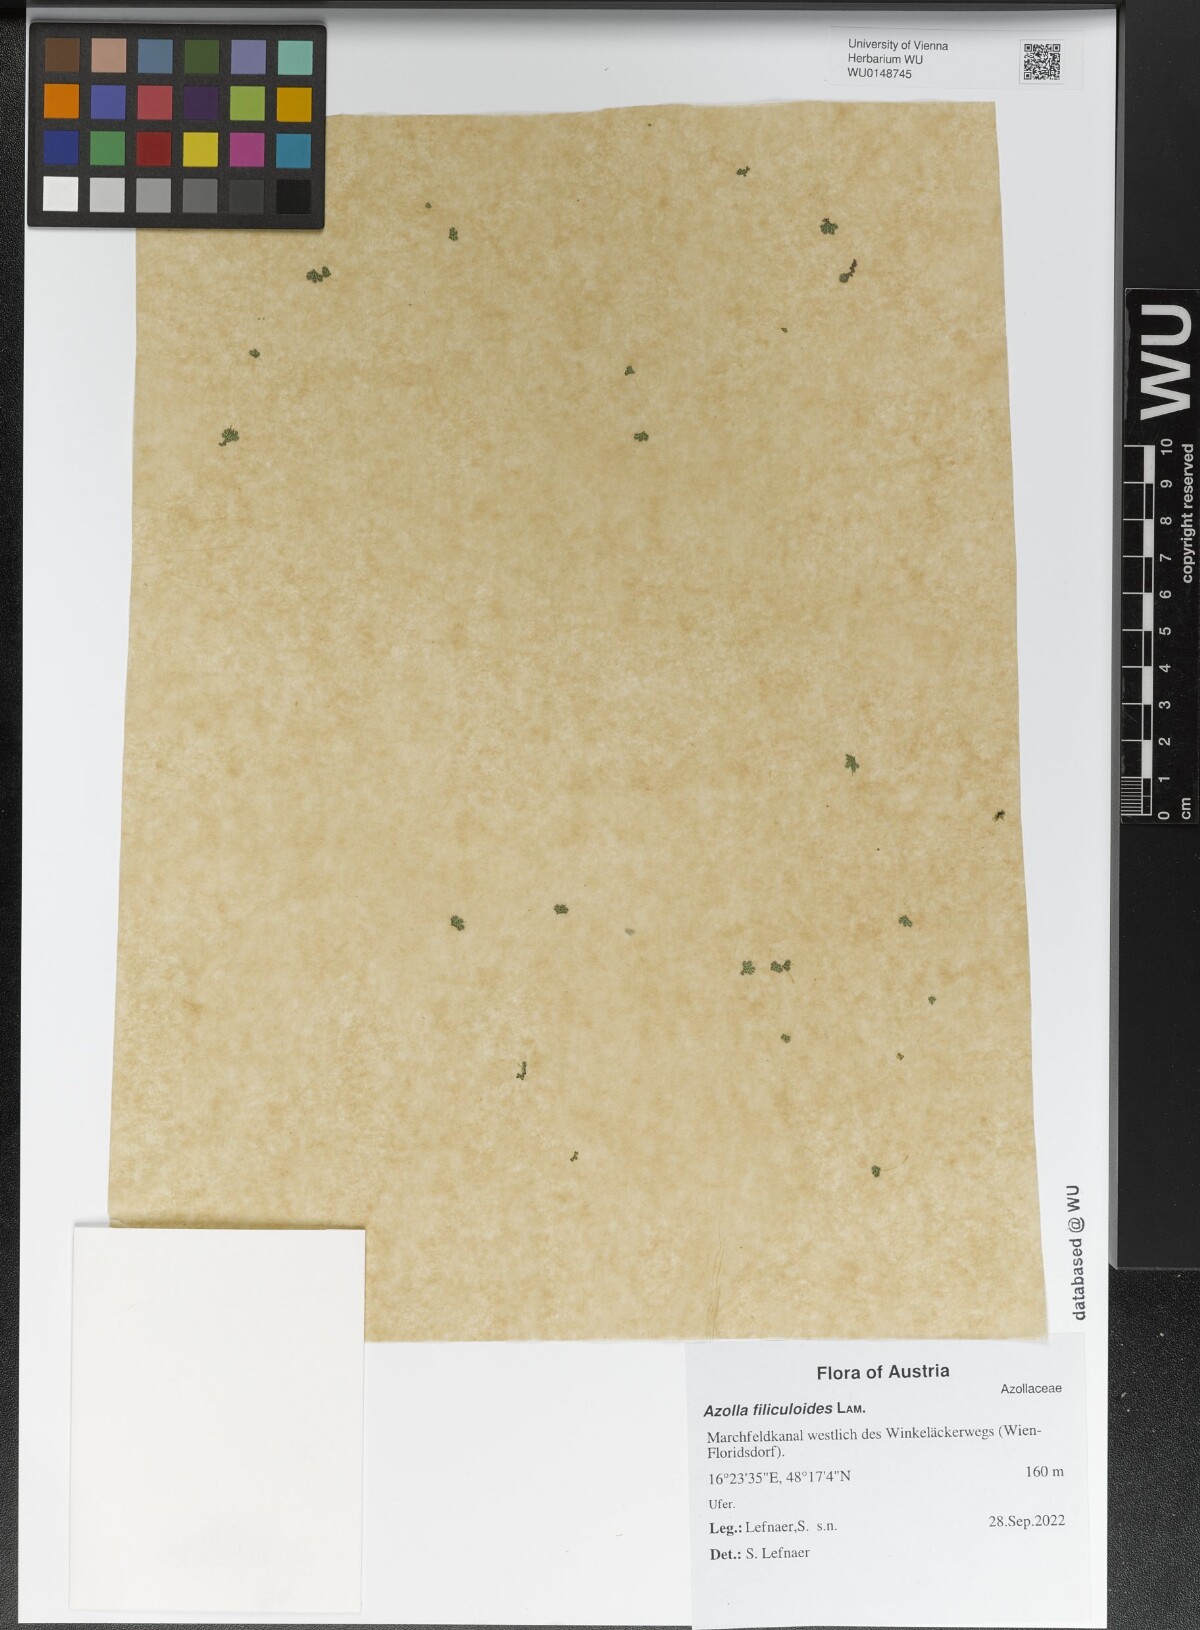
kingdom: Plantae
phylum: Tracheophyta
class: Polypodiopsida
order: Salviniales
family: Salviniaceae
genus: Azolla
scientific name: Azolla filiculoides
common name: Water fern
